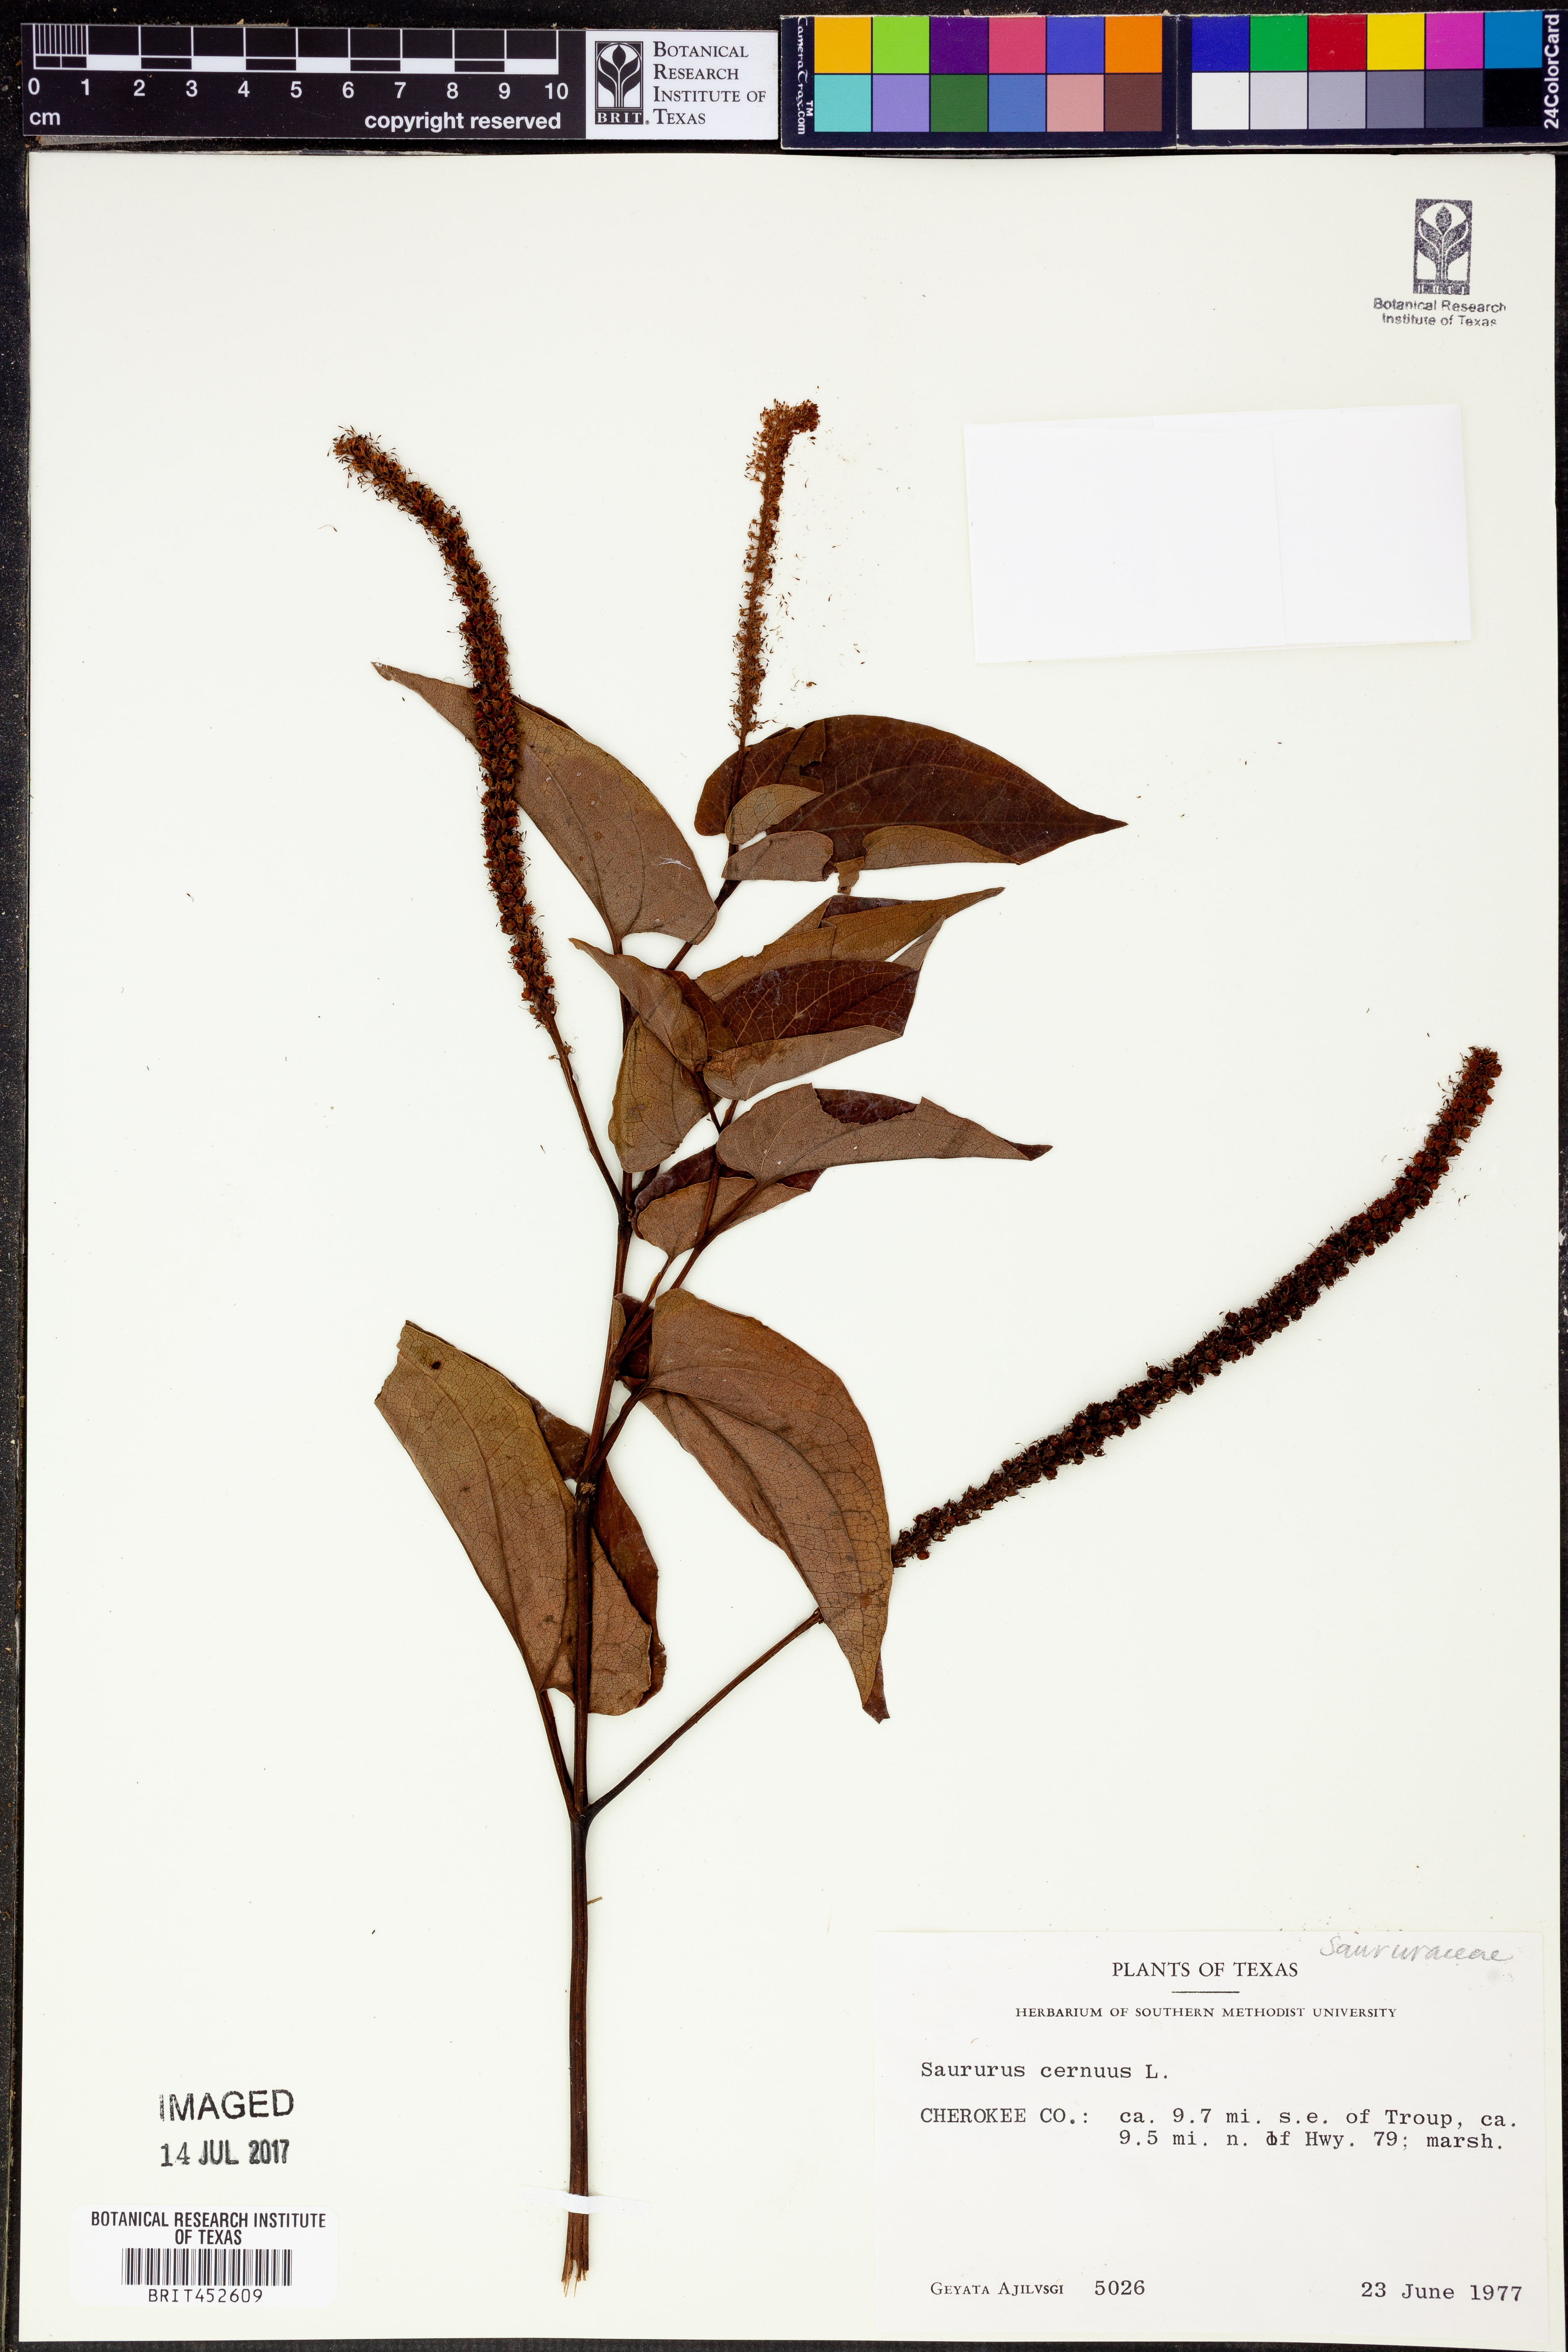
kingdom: Plantae
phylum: Tracheophyta
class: Magnoliopsida
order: Piperales
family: Saururaceae
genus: Saururus
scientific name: Saururus cernuus
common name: Lizard's-tail
